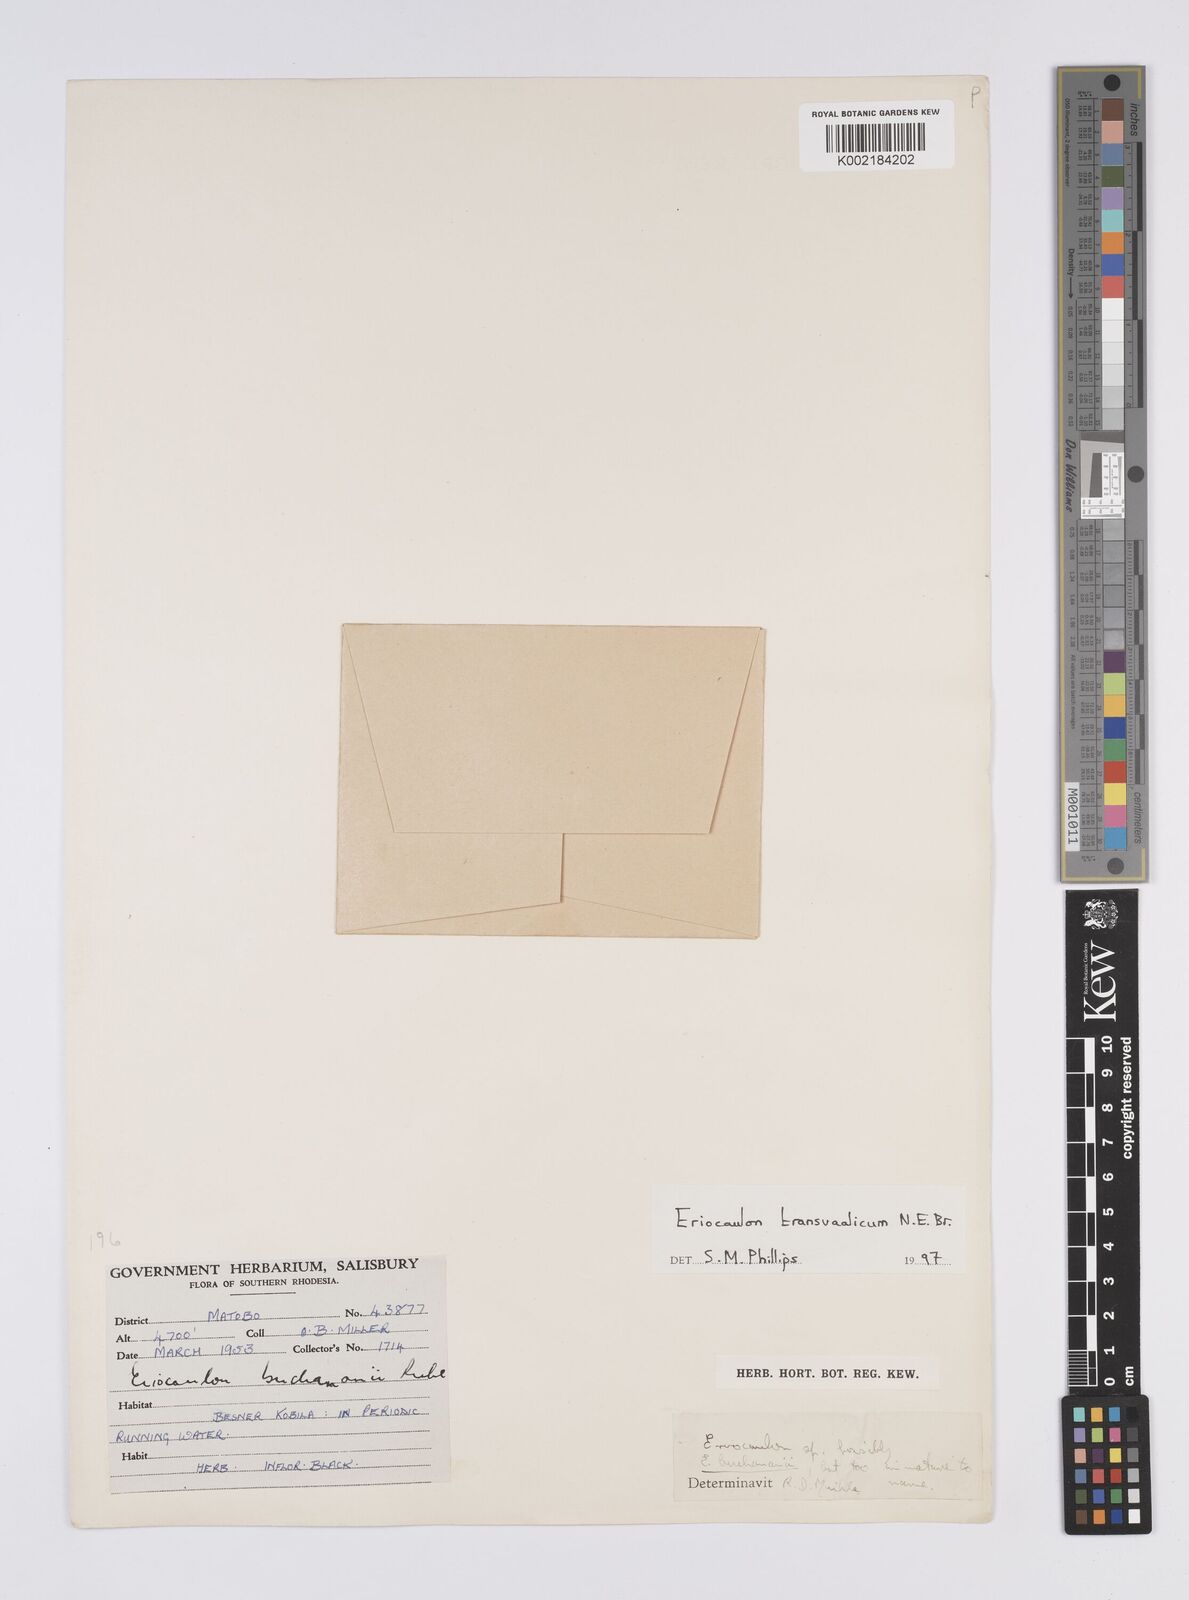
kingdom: Plantae
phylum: Tracheophyta
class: Liliopsida
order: Poales
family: Eriocaulaceae
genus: Eriocaulon
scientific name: Eriocaulon transvaalicum
